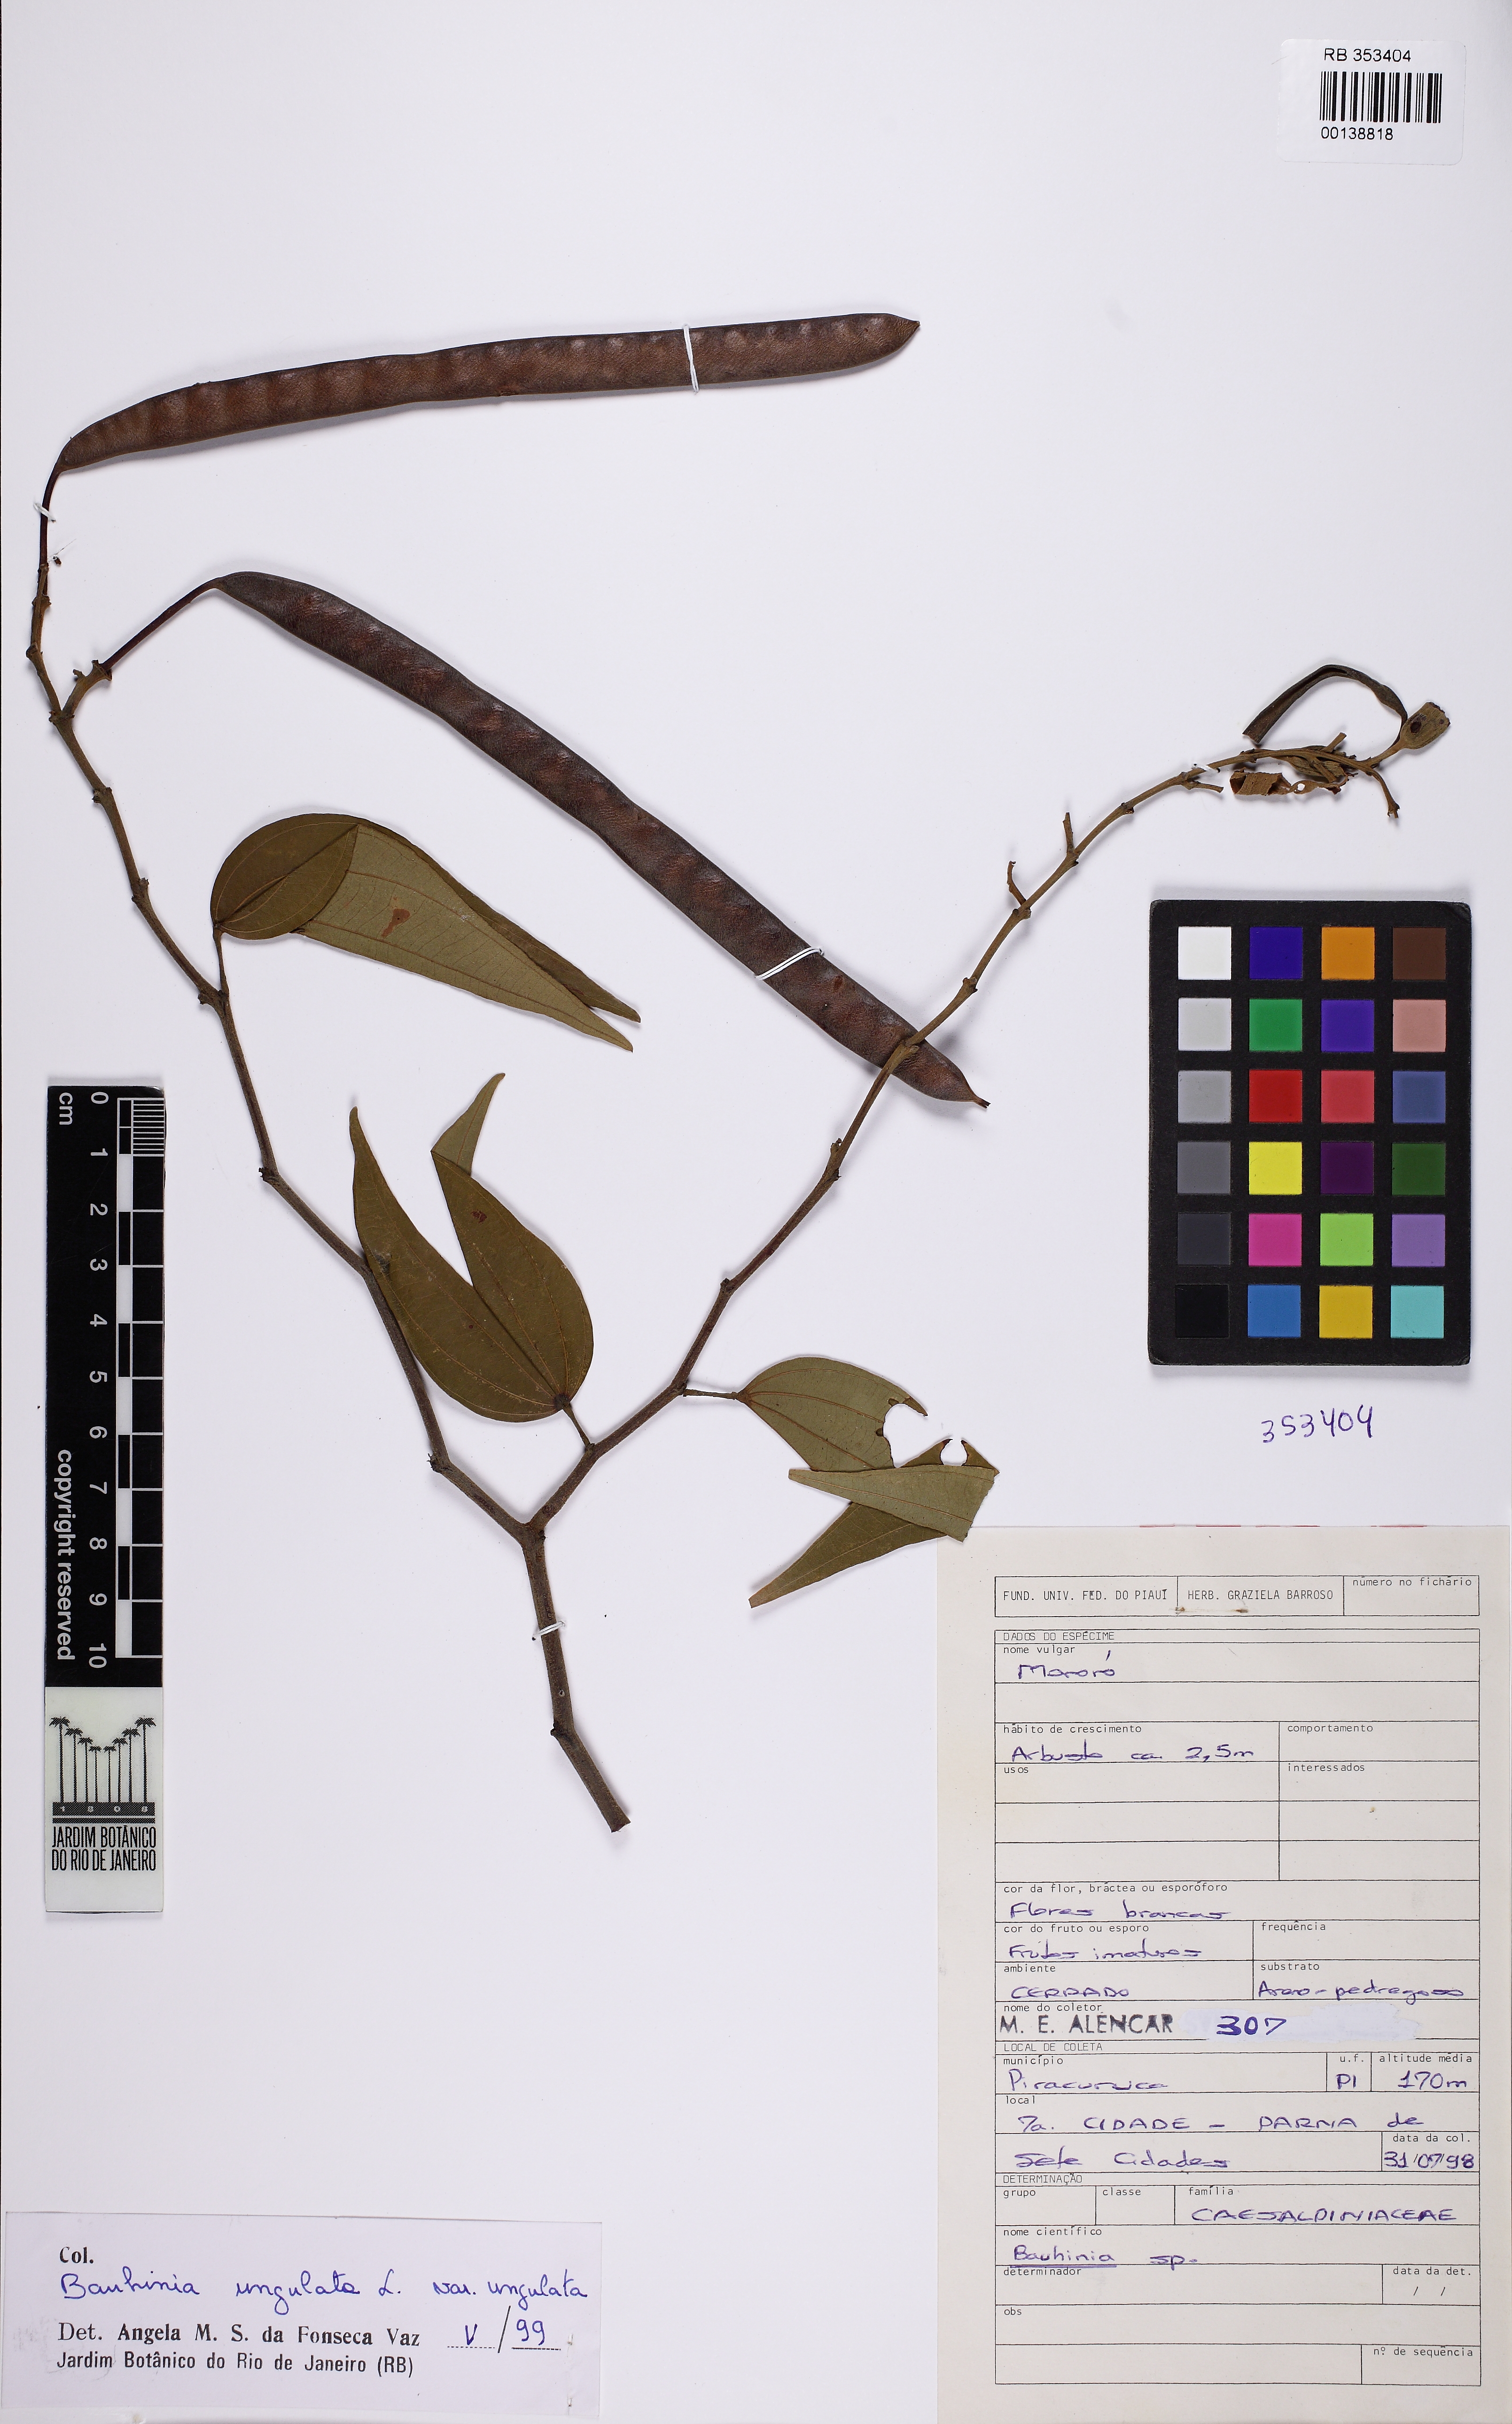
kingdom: Plantae
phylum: Tracheophyta
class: Magnoliopsida
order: Fabales
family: Fabaceae
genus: Bauhinia
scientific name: Bauhinia ungulata
